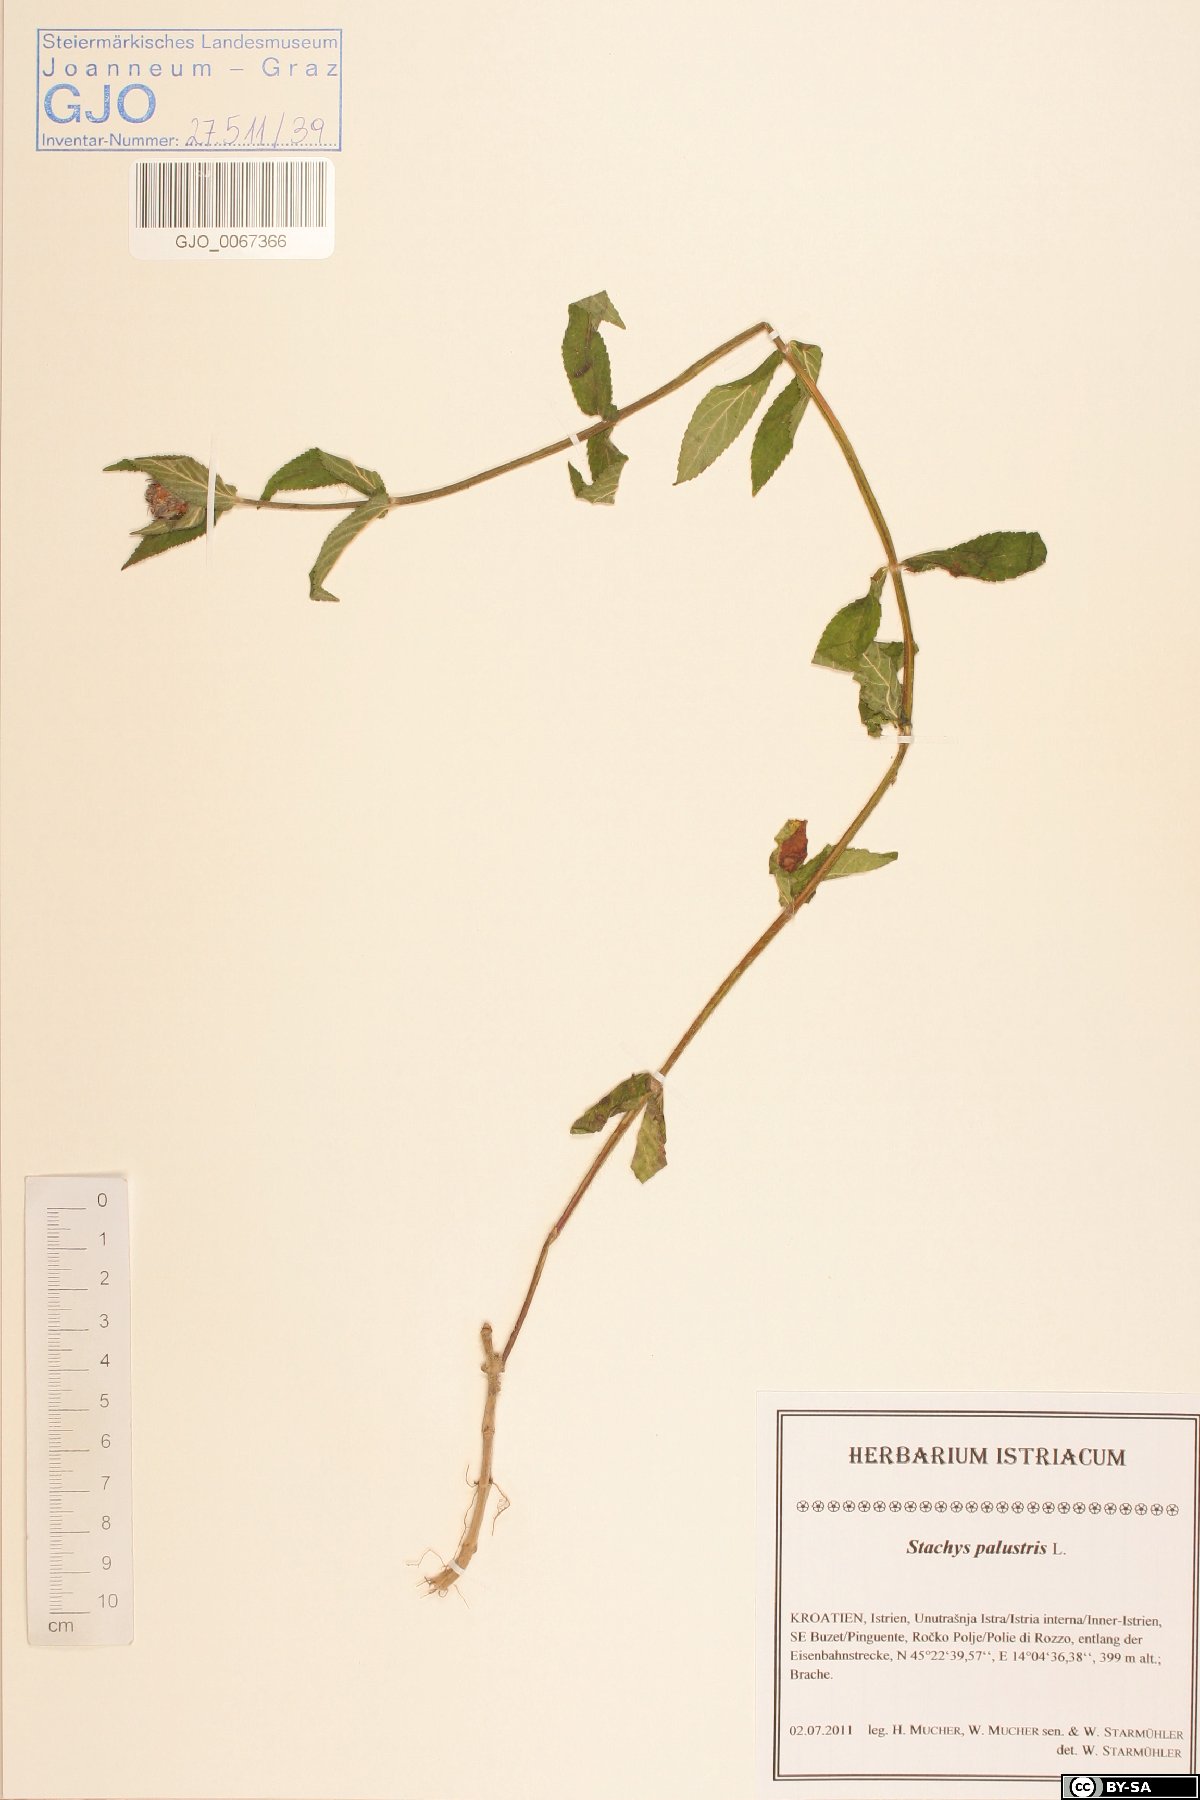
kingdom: Plantae
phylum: Tracheophyta
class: Magnoliopsida
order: Lamiales
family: Lamiaceae
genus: Stachys
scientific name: Stachys palustris
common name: Marsh woundwort
